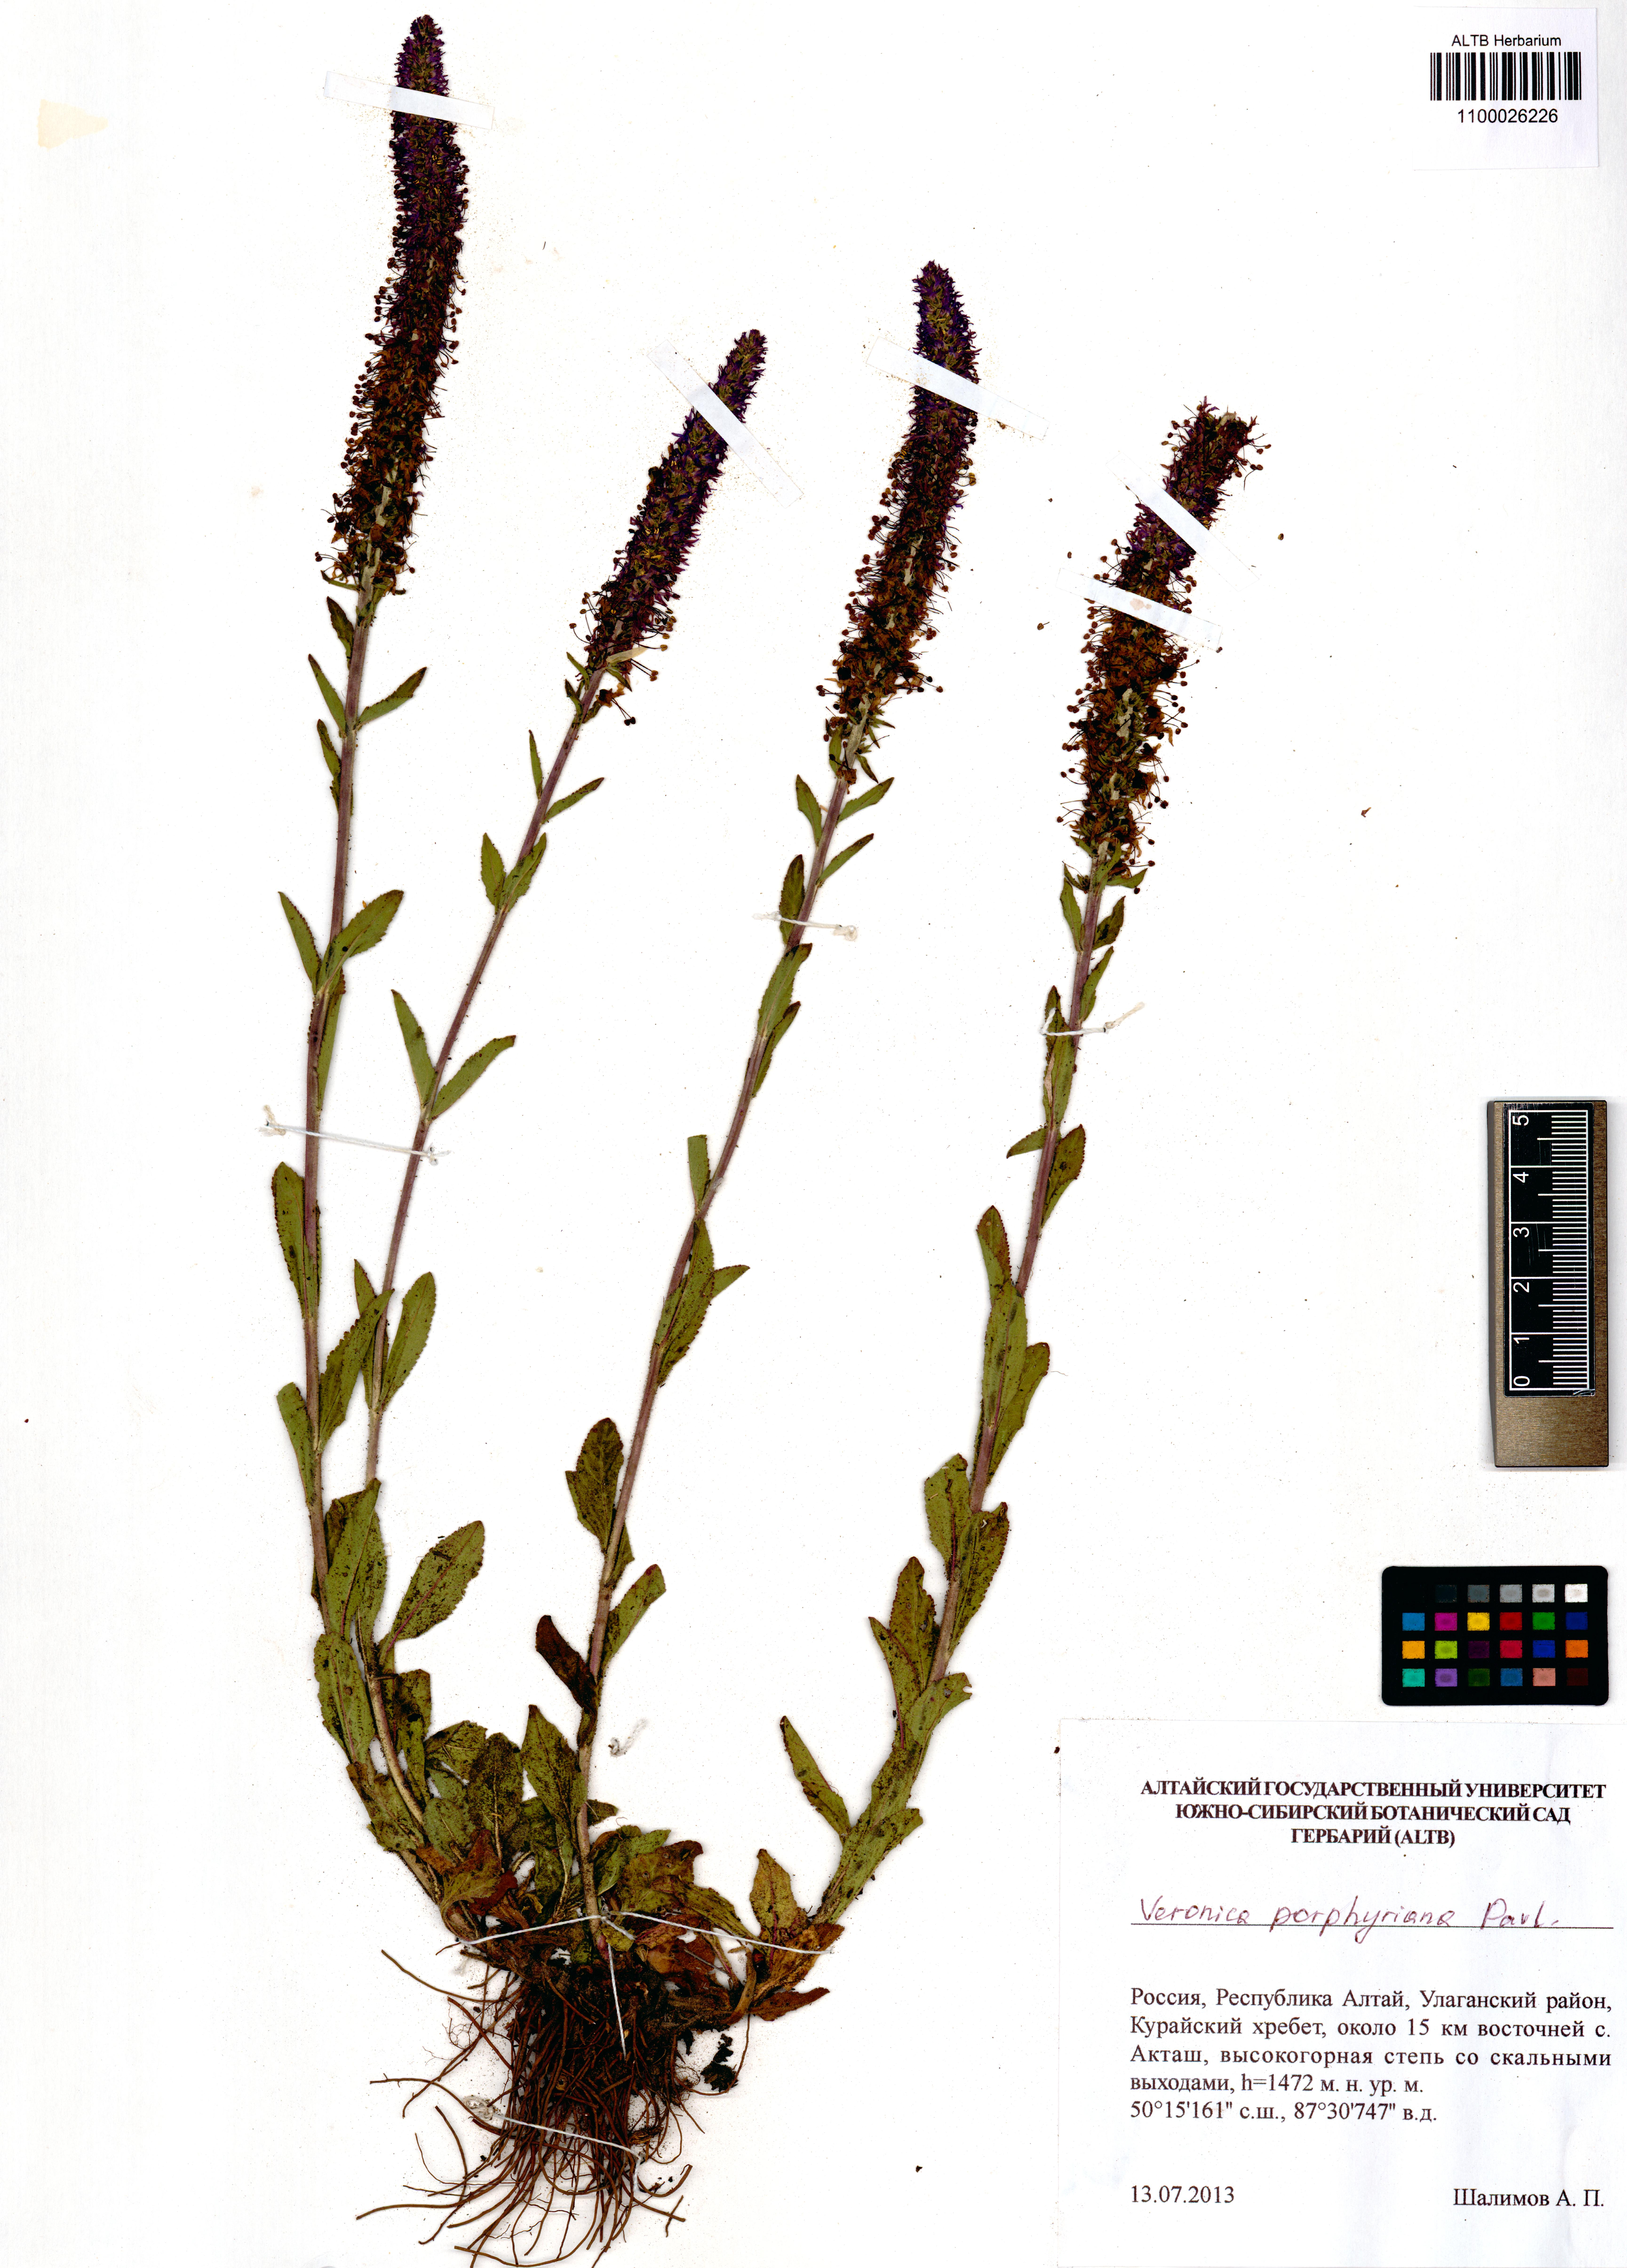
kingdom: Plantae
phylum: Tracheophyta
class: Magnoliopsida
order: Lamiales
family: Plantaginaceae
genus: Veronica
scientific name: Veronica porphyriana
